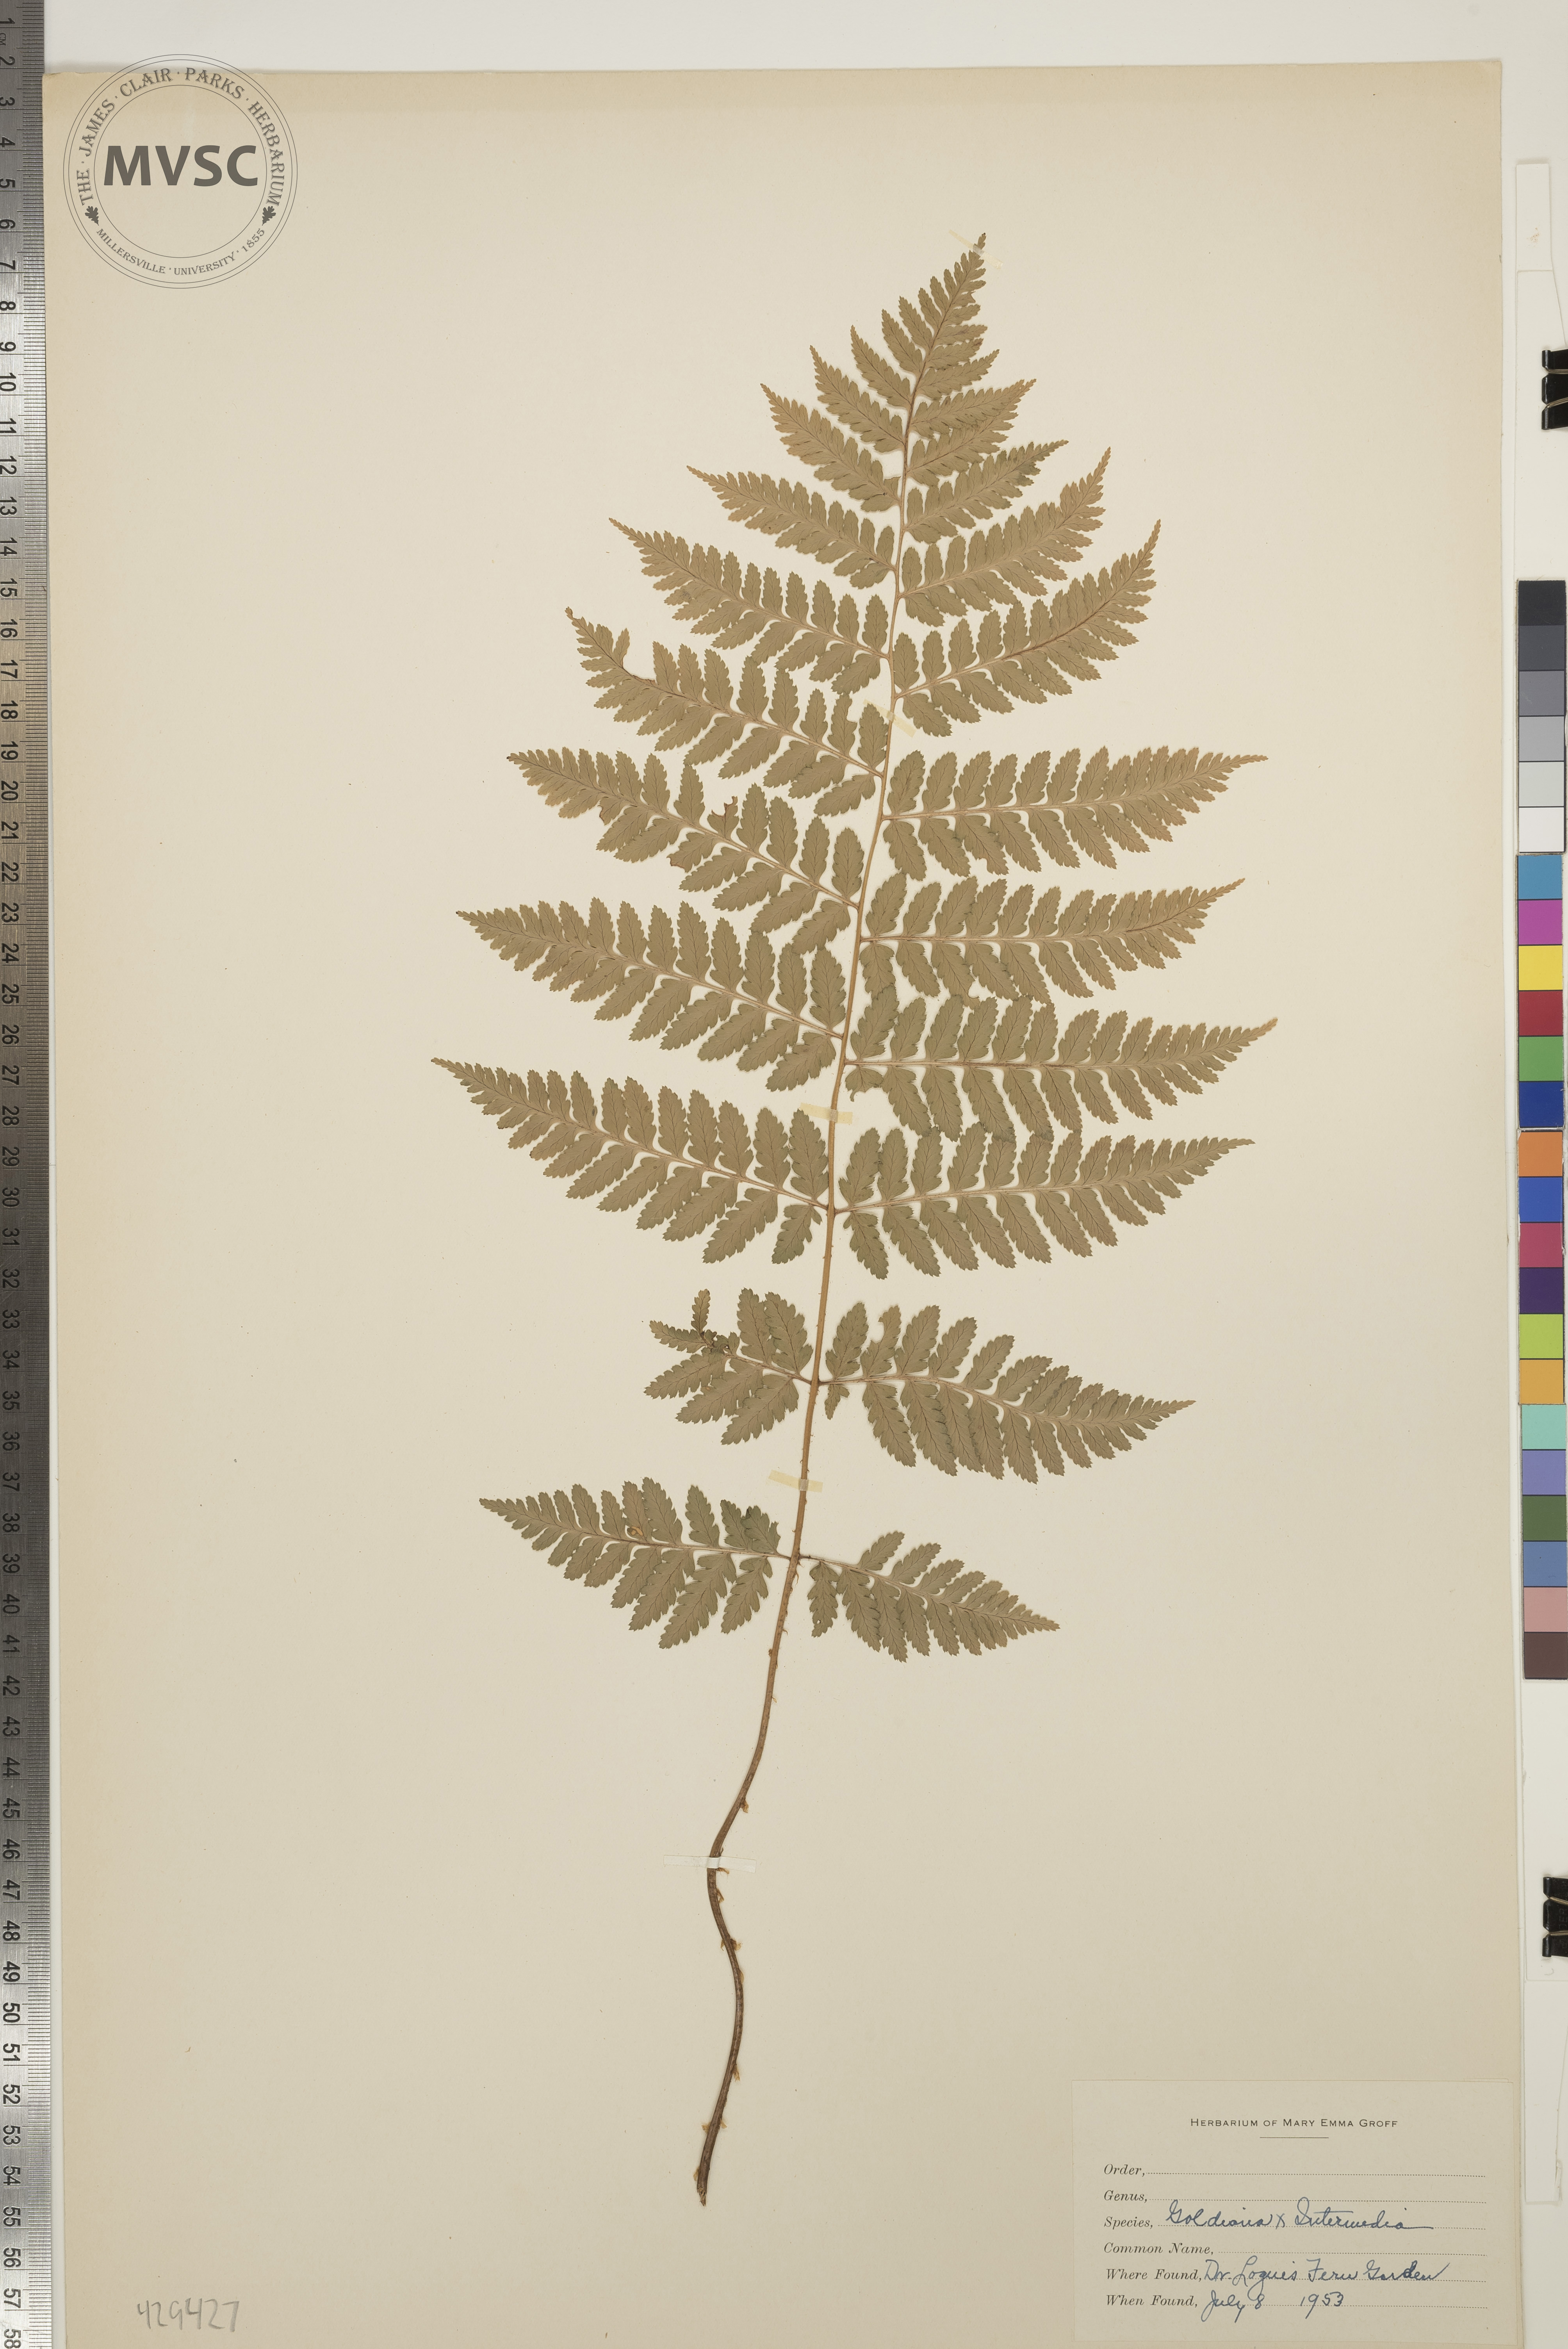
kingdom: Plantae
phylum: Tracheophyta
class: Polypodiopsida
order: Polypodiales
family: Dryopteridaceae
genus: Dryopteris
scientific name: Dryopteris
